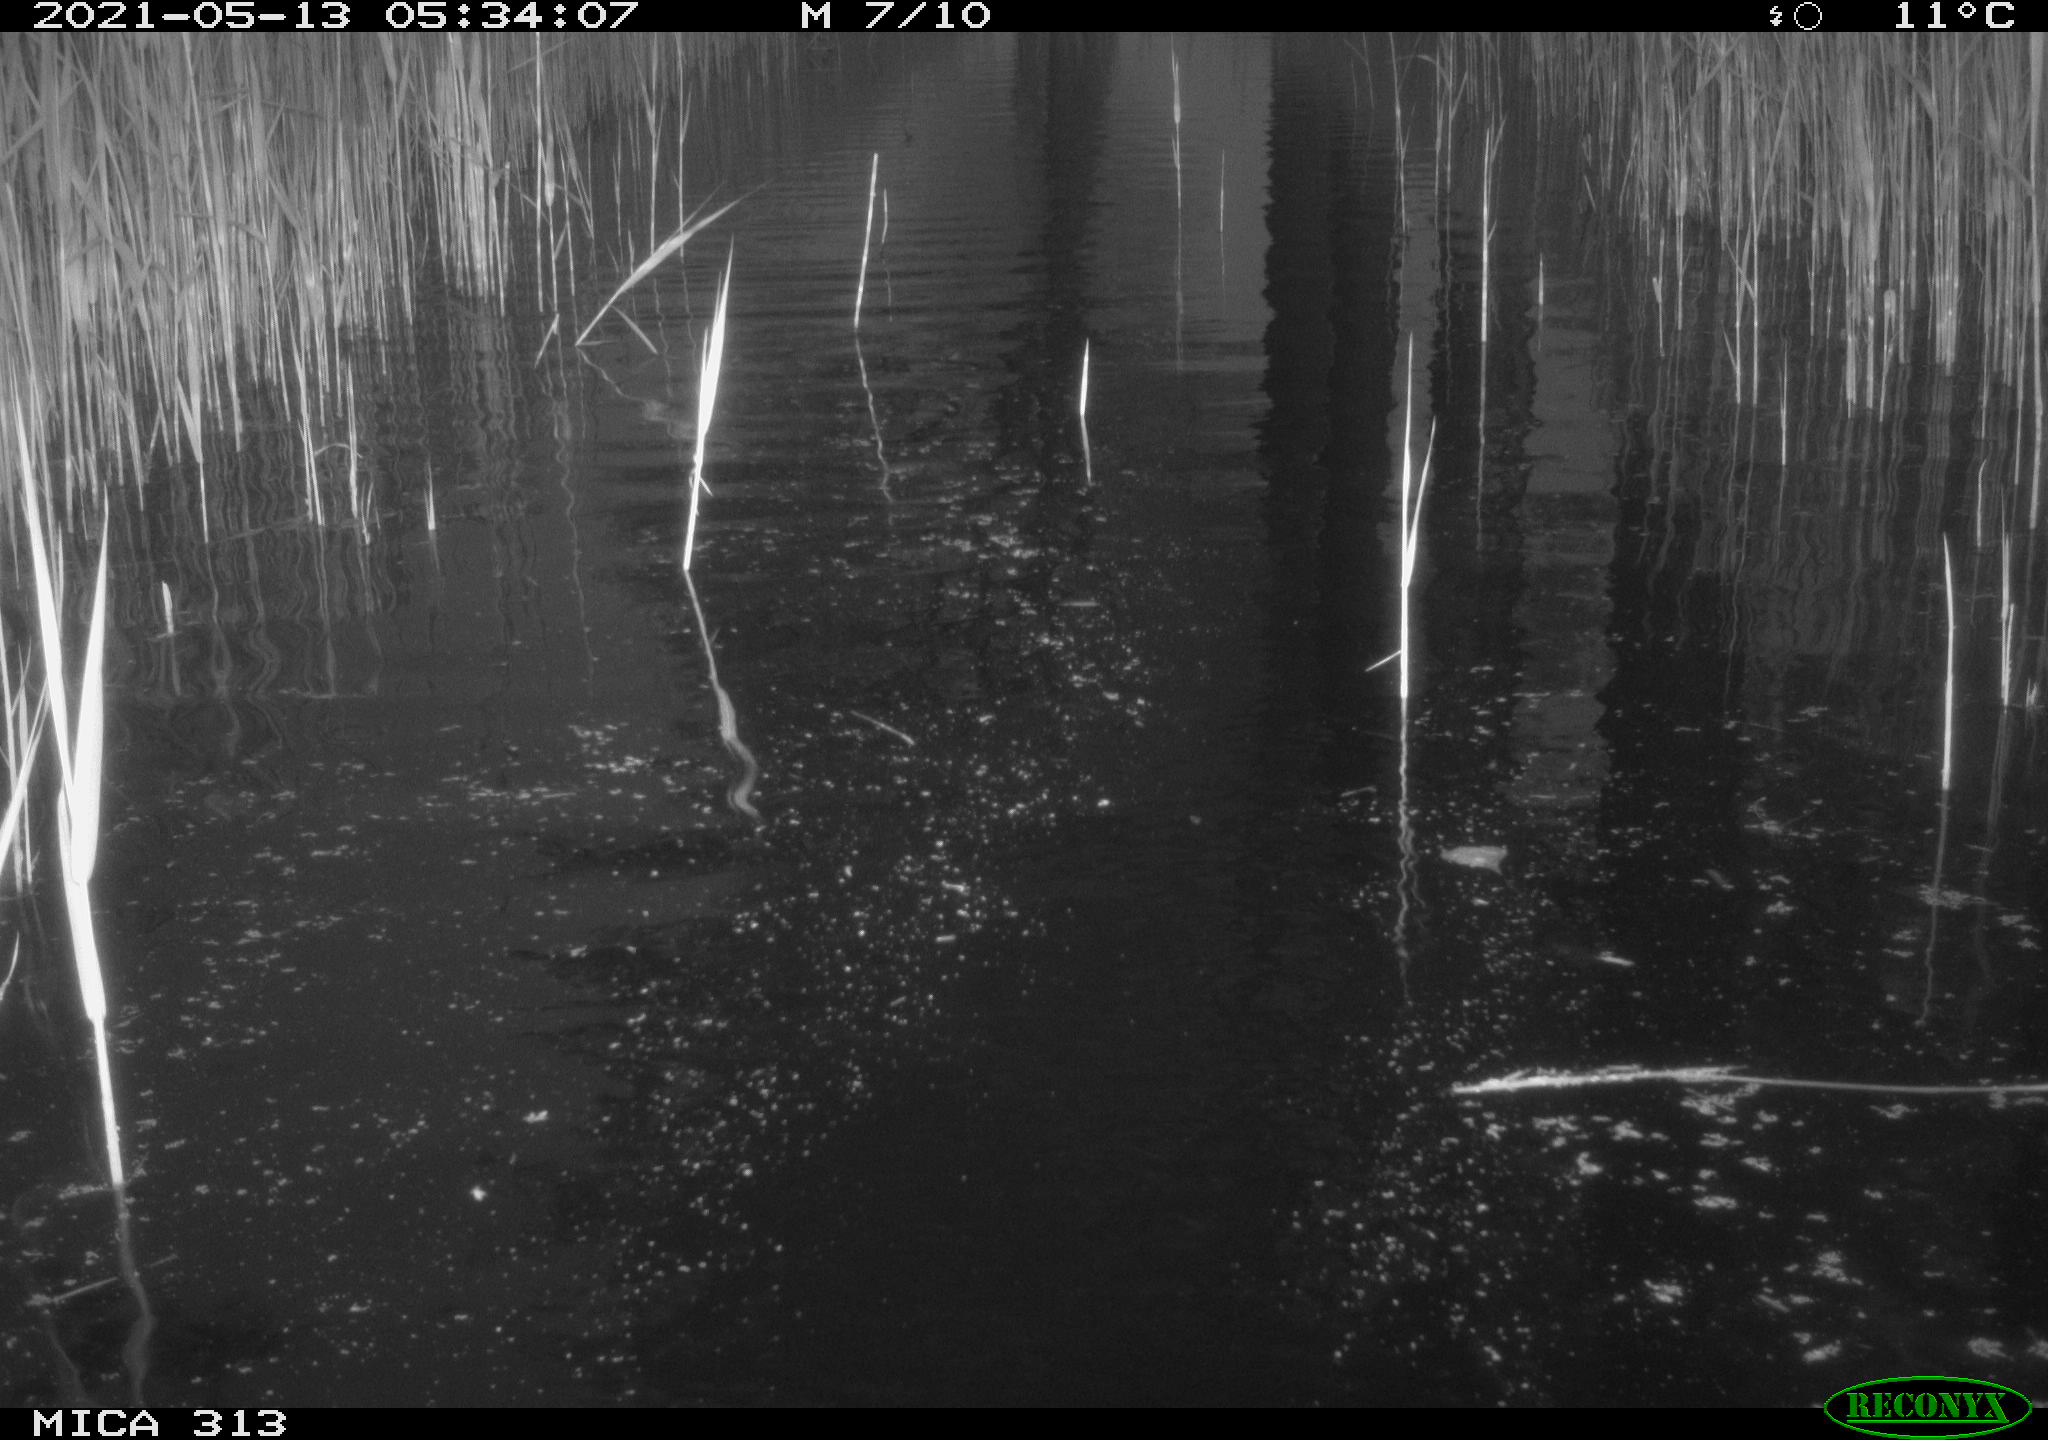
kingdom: Animalia
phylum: Chordata
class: Aves
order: Anseriformes
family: Anatidae
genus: Anas
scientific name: Anas platyrhynchos
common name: Mallard
